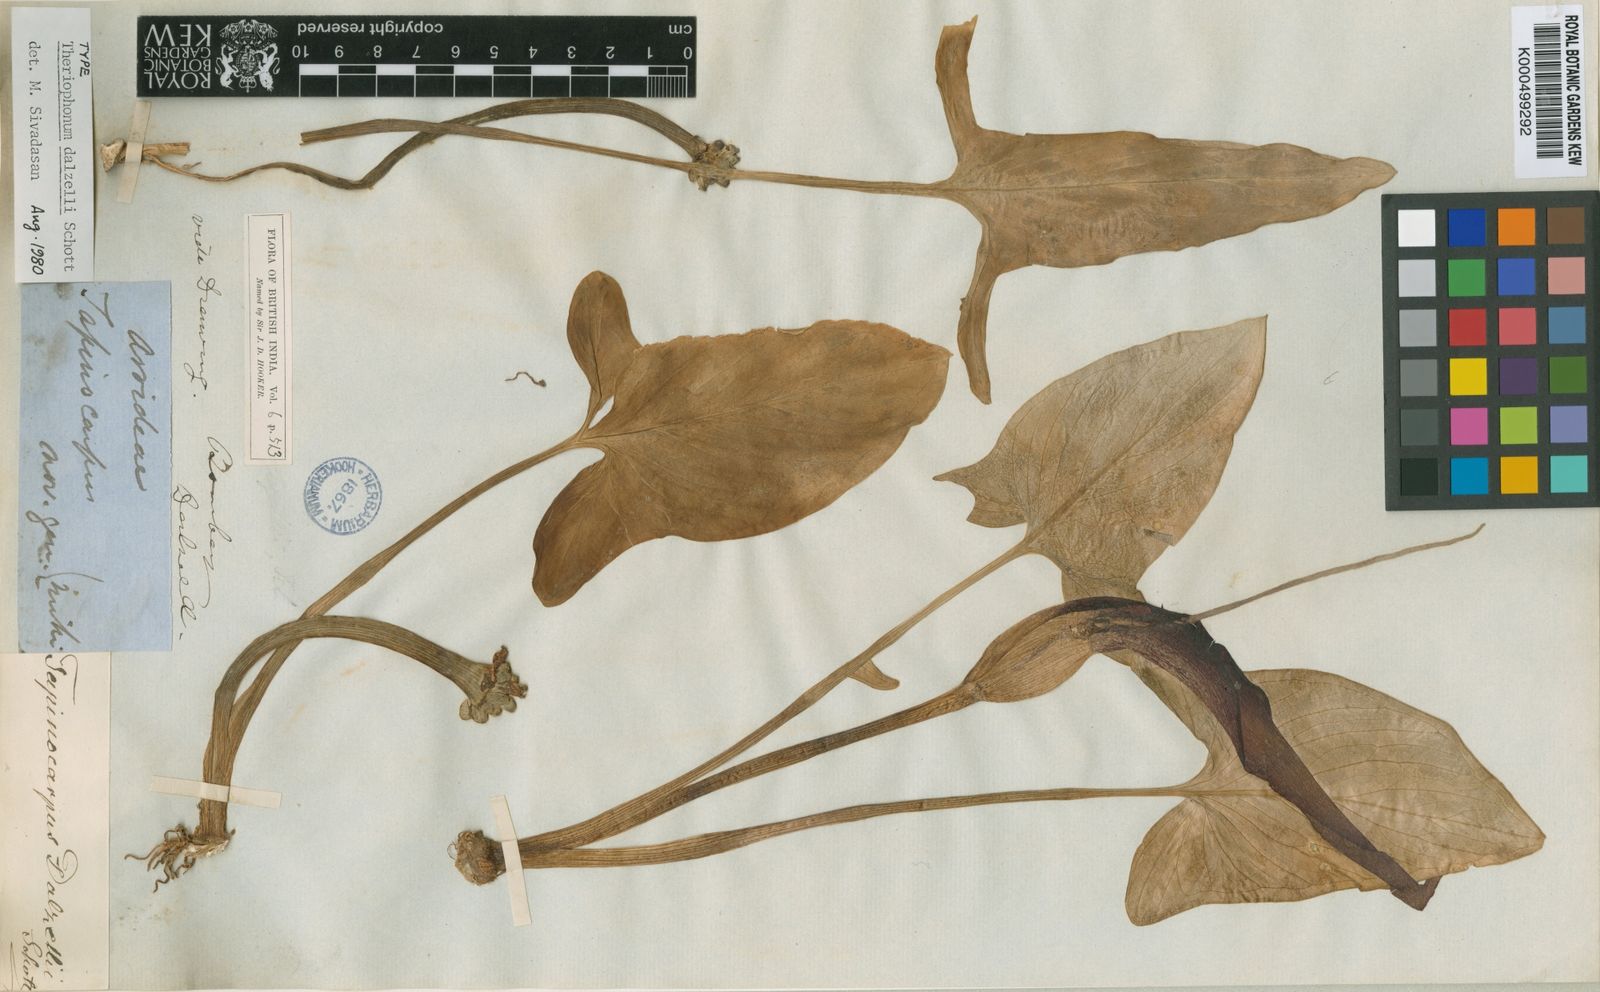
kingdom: Plantae
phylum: Tracheophyta
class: Liliopsida
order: Alismatales
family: Araceae
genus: Typhonium
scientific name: Typhonium bulbiferum
